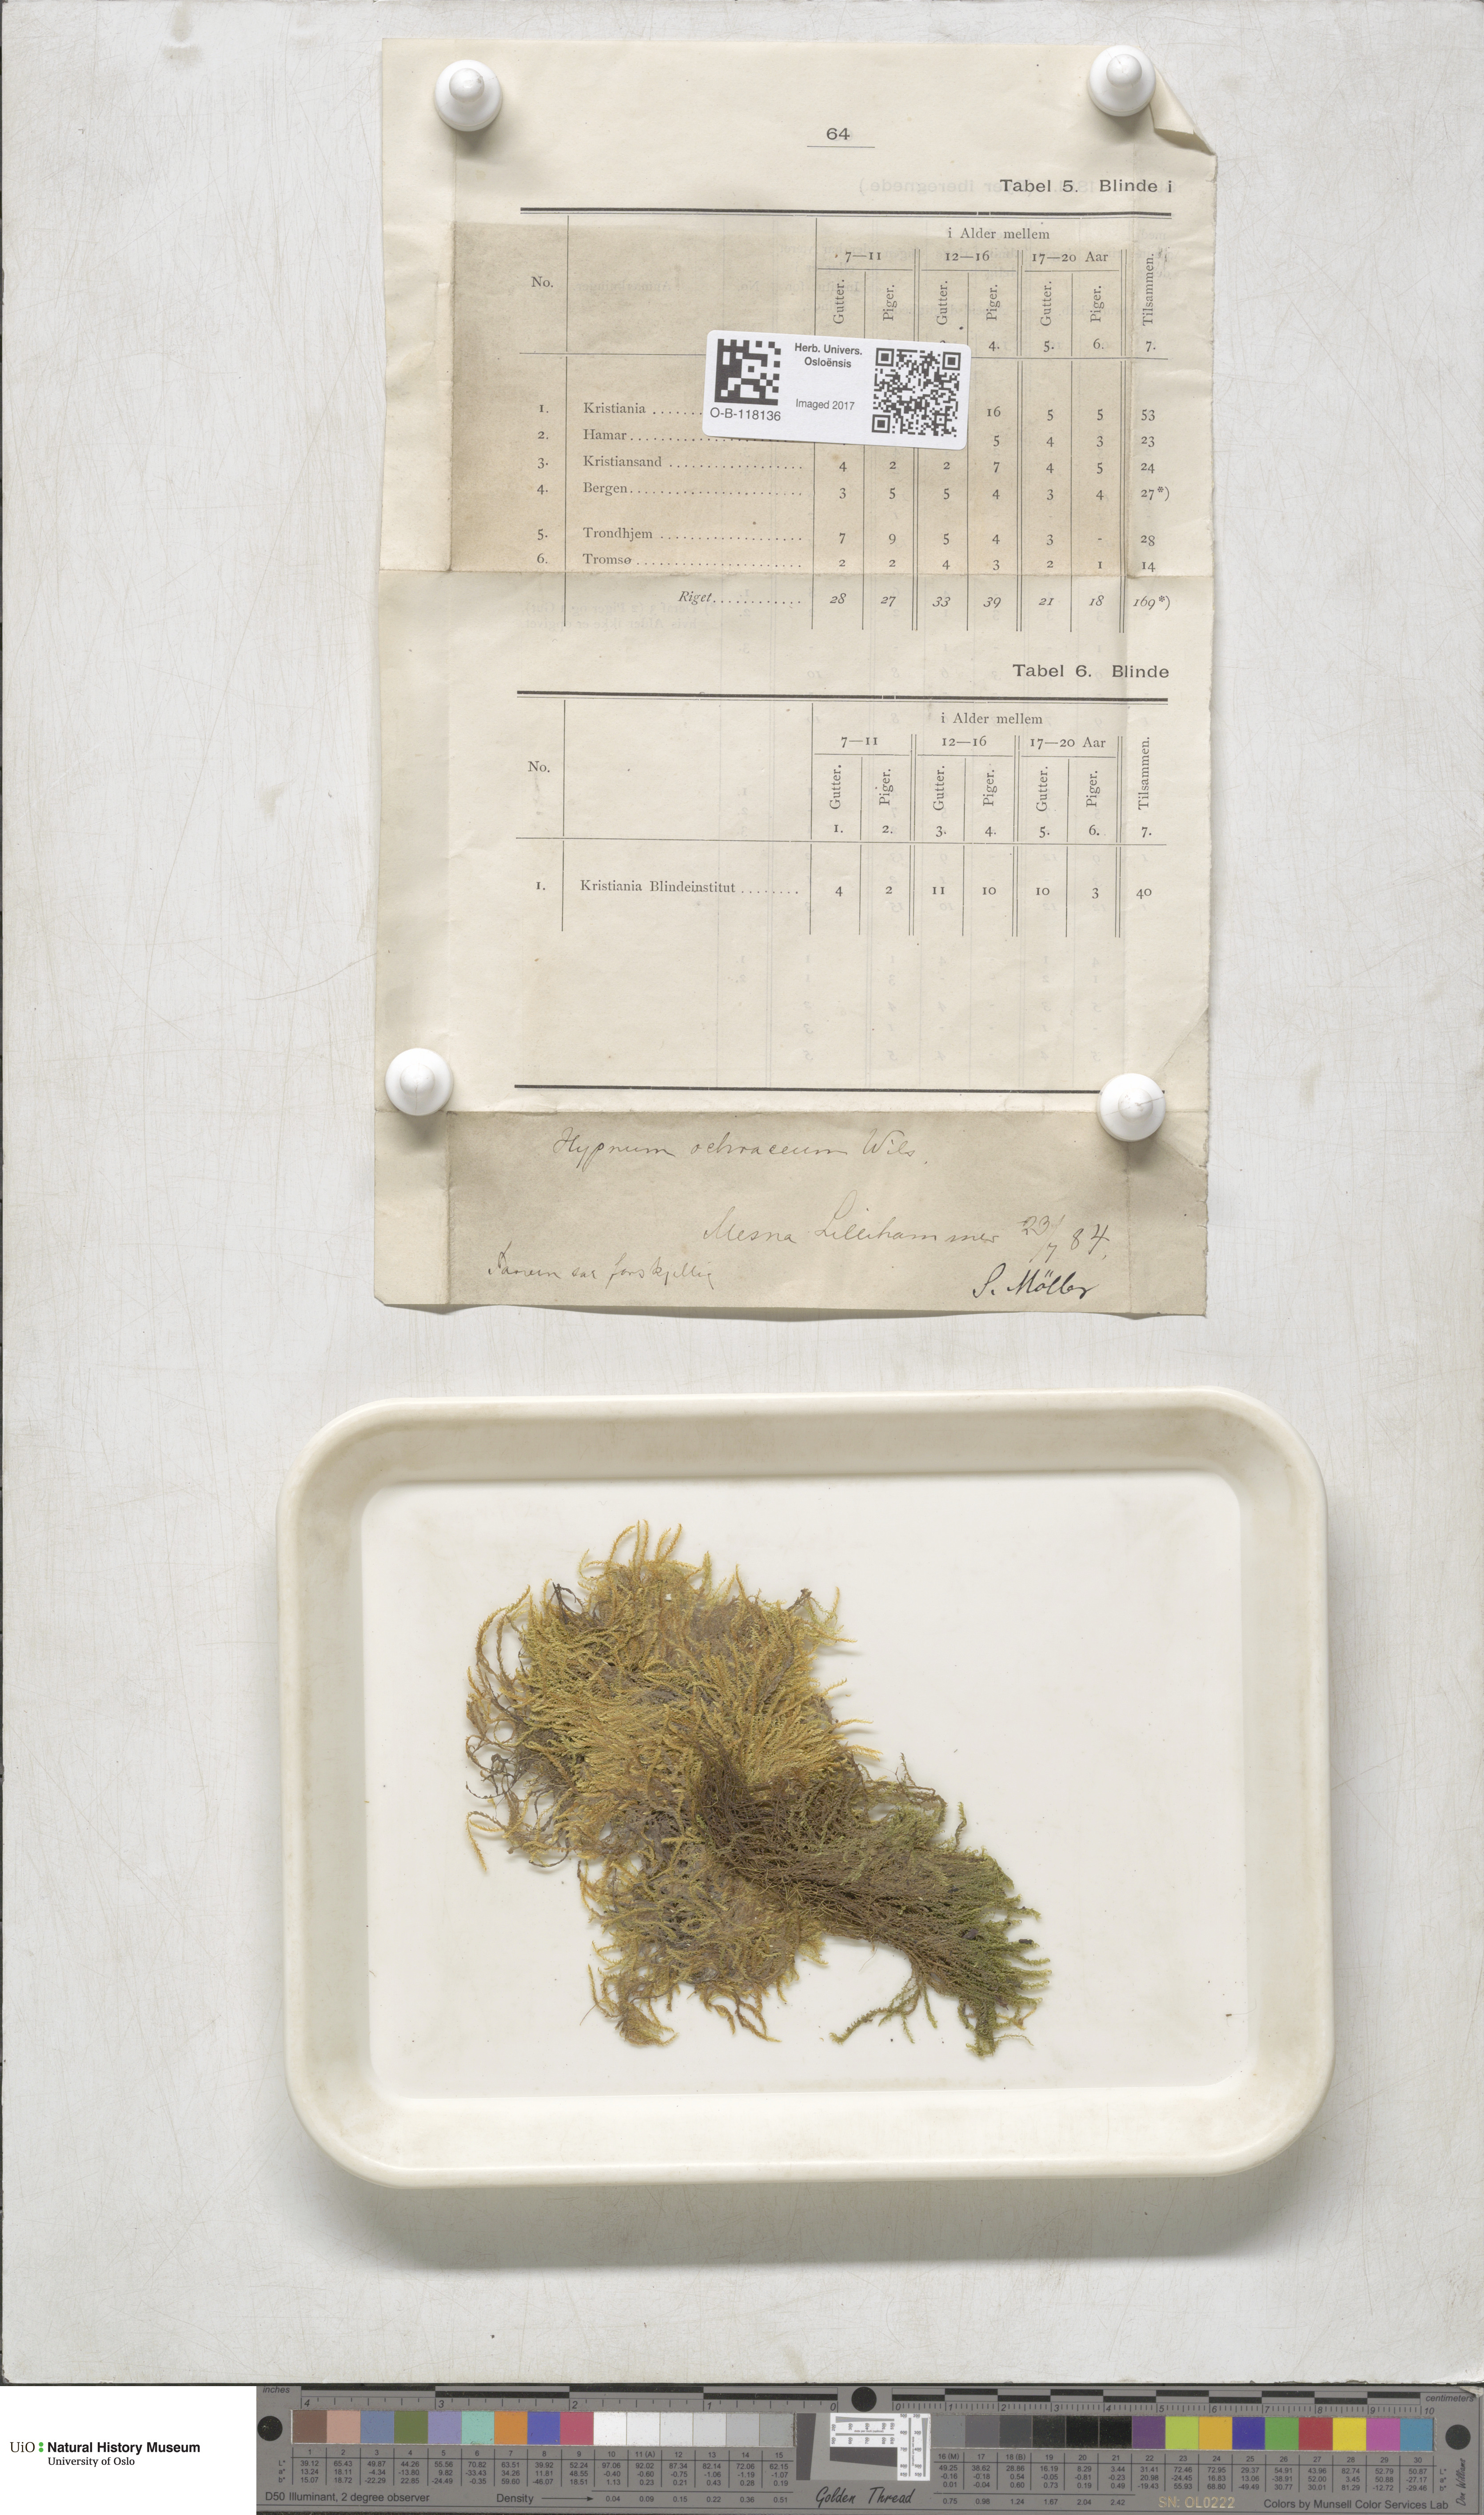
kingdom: Plantae
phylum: Bryophyta
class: Bryopsida
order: Hypnales
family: Scorpidiaceae
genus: Hygrohypnella
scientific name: Hygrohypnella ochracea
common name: Hygrohypnum moss
